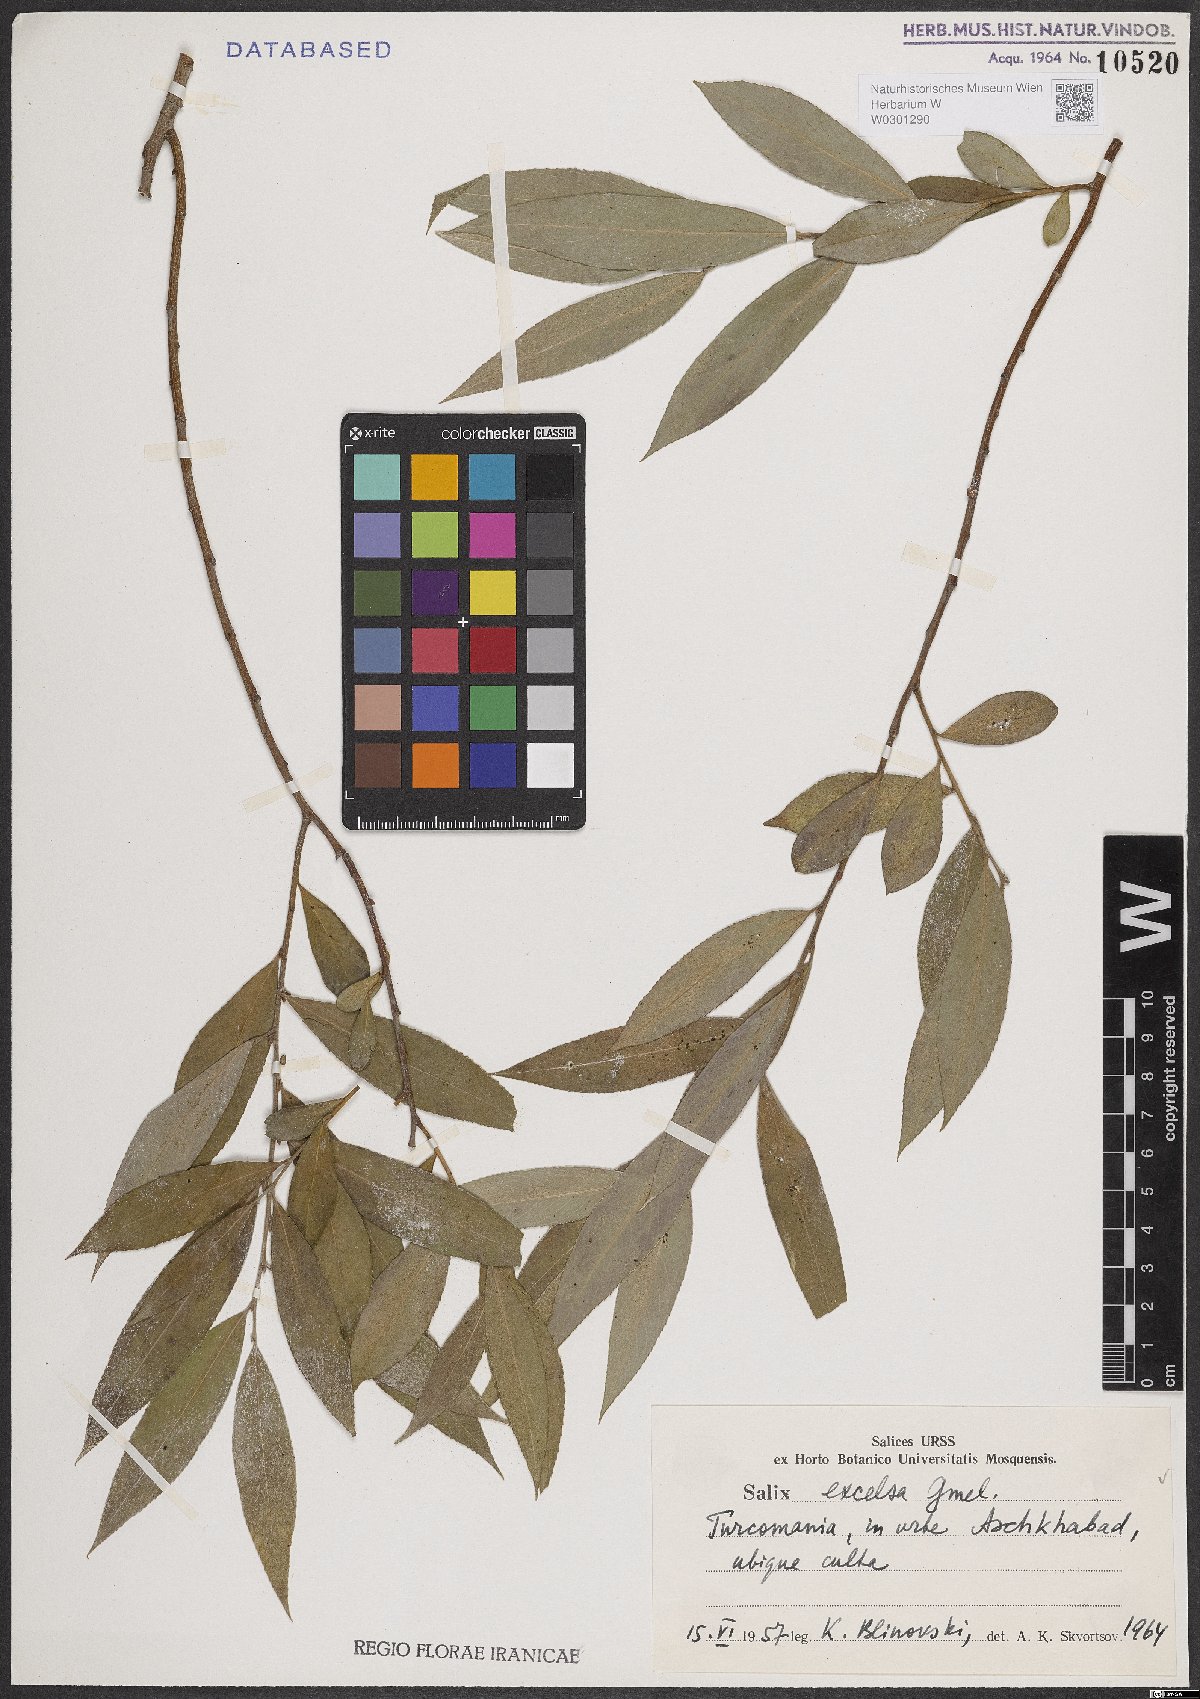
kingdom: Plantae
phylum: Tracheophyta
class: Magnoliopsida
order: Malpighiales
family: Salicaceae
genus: Salix
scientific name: Salix excelsa
